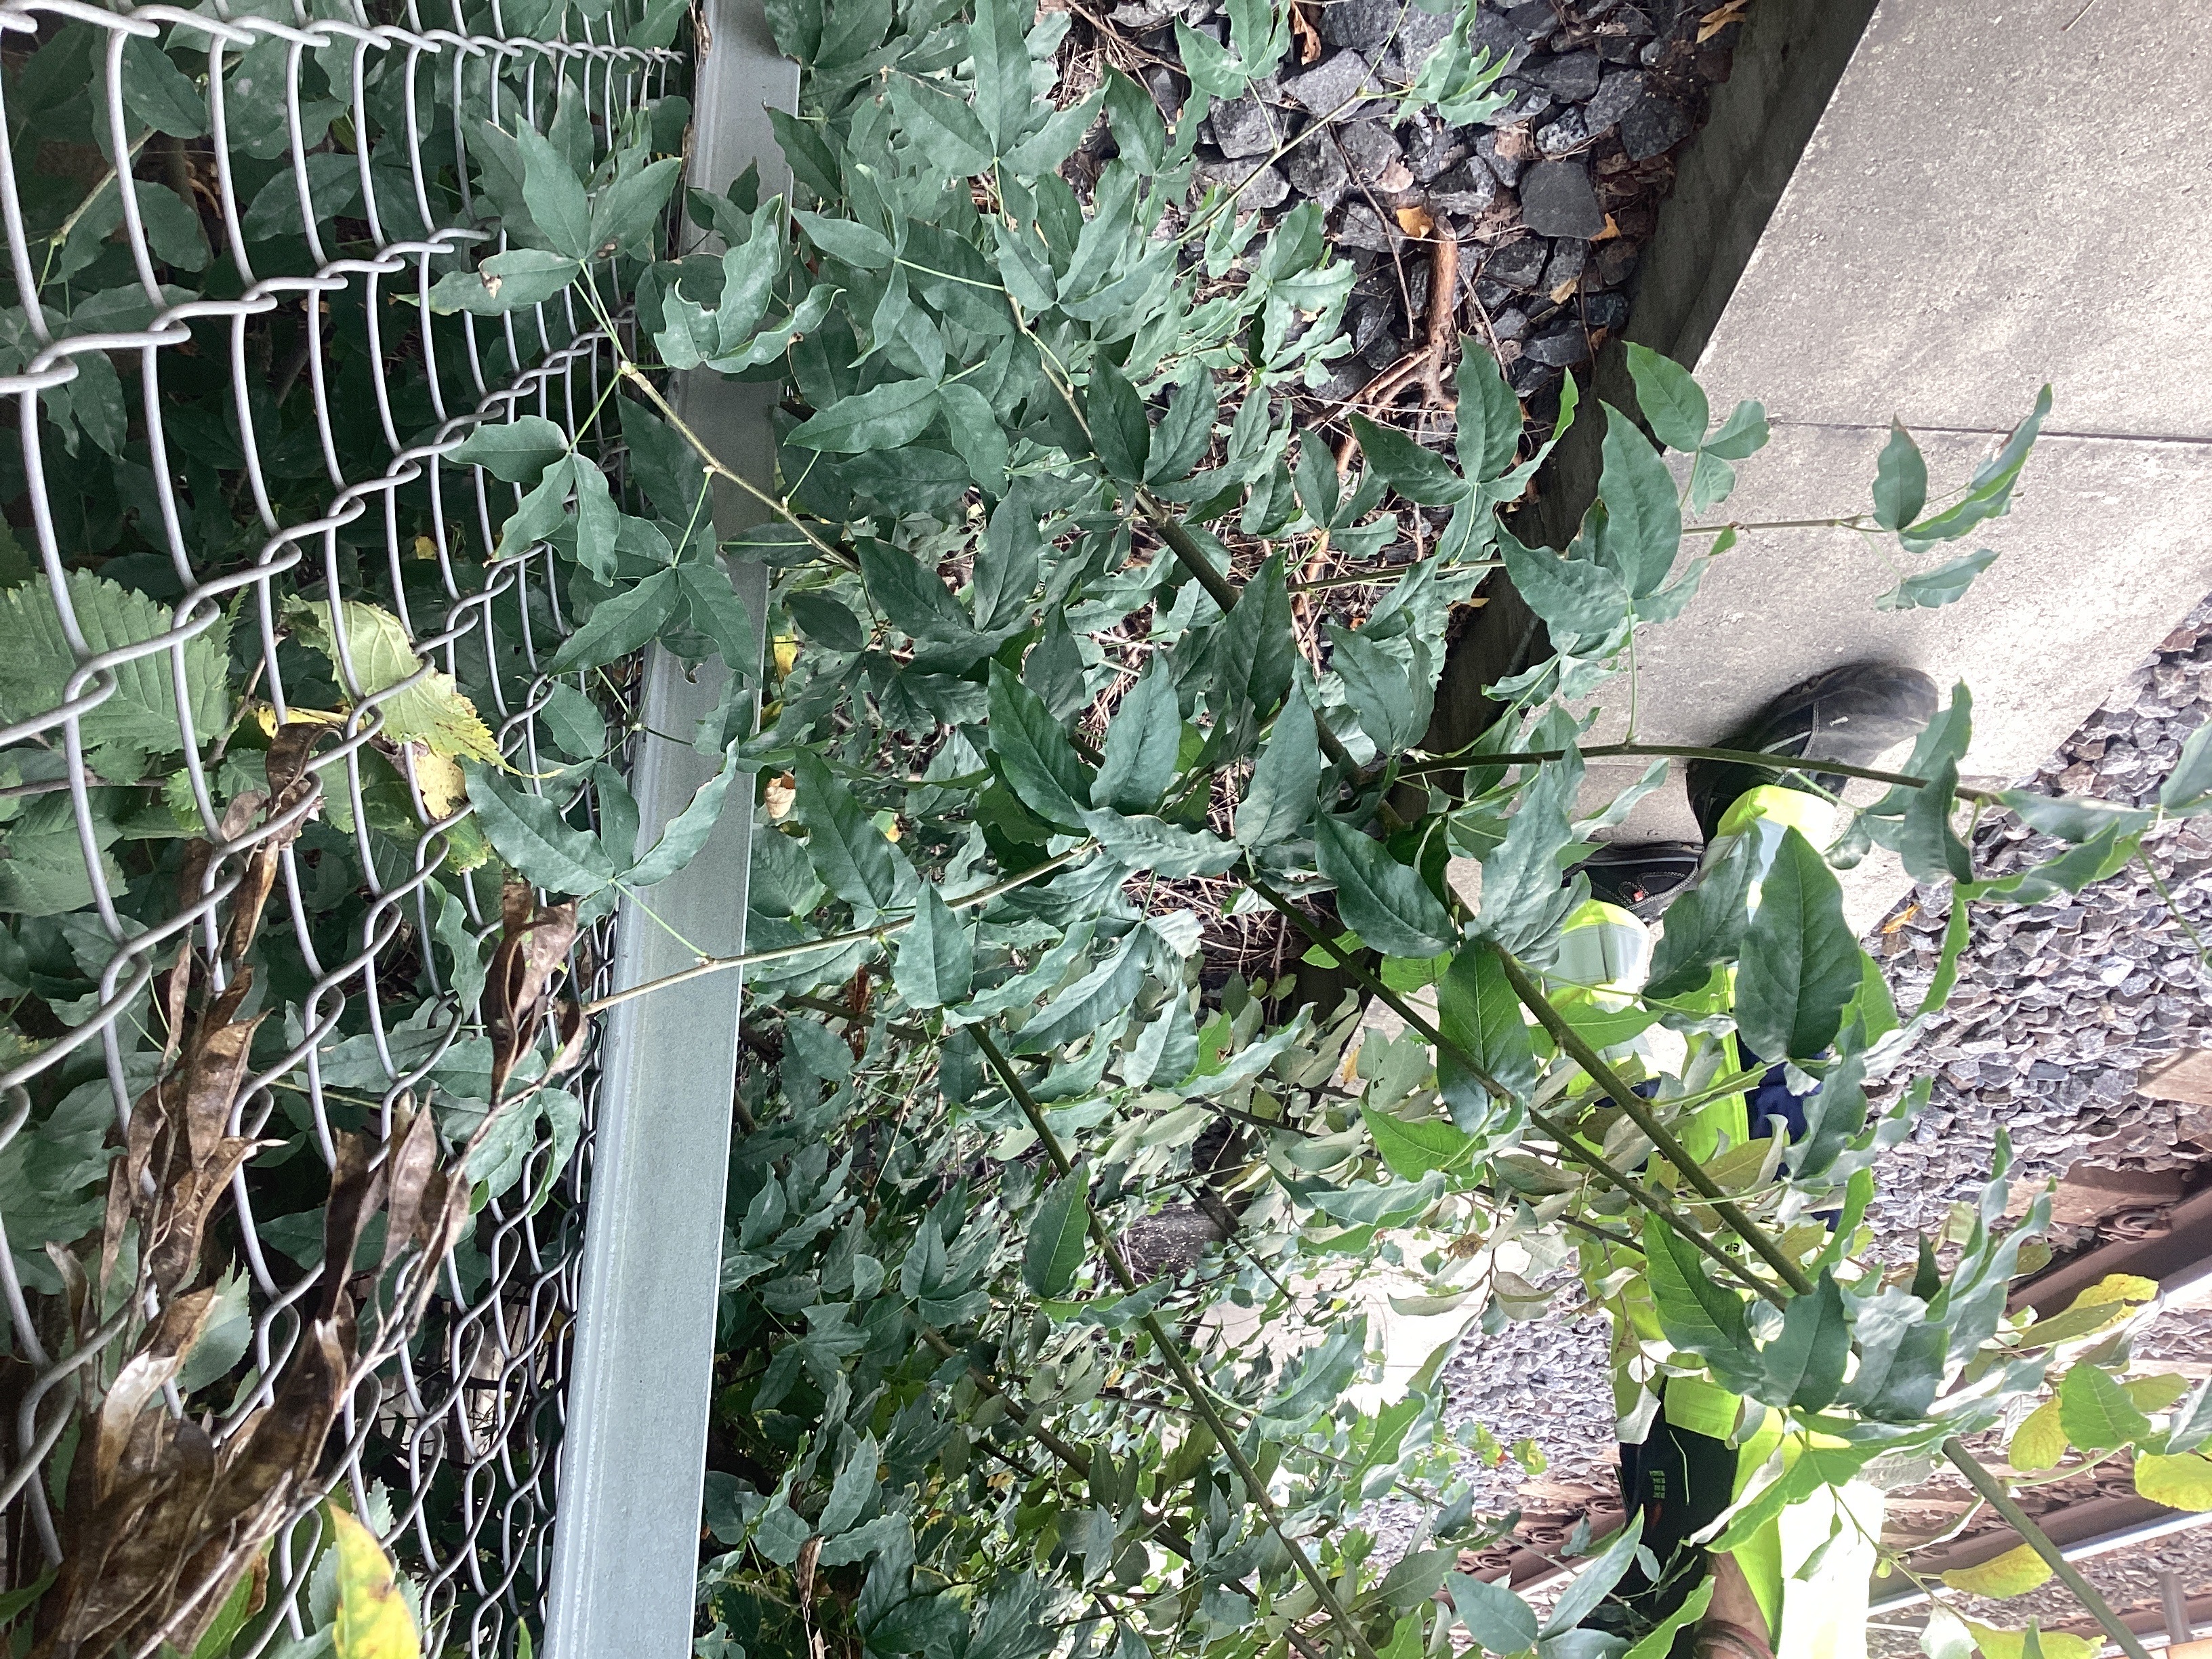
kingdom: Plantae
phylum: Tracheophyta
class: Magnoliopsida
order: Fabales
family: Fabaceae
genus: Laburnum
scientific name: Laburnum alpinum
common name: alpegullregn
